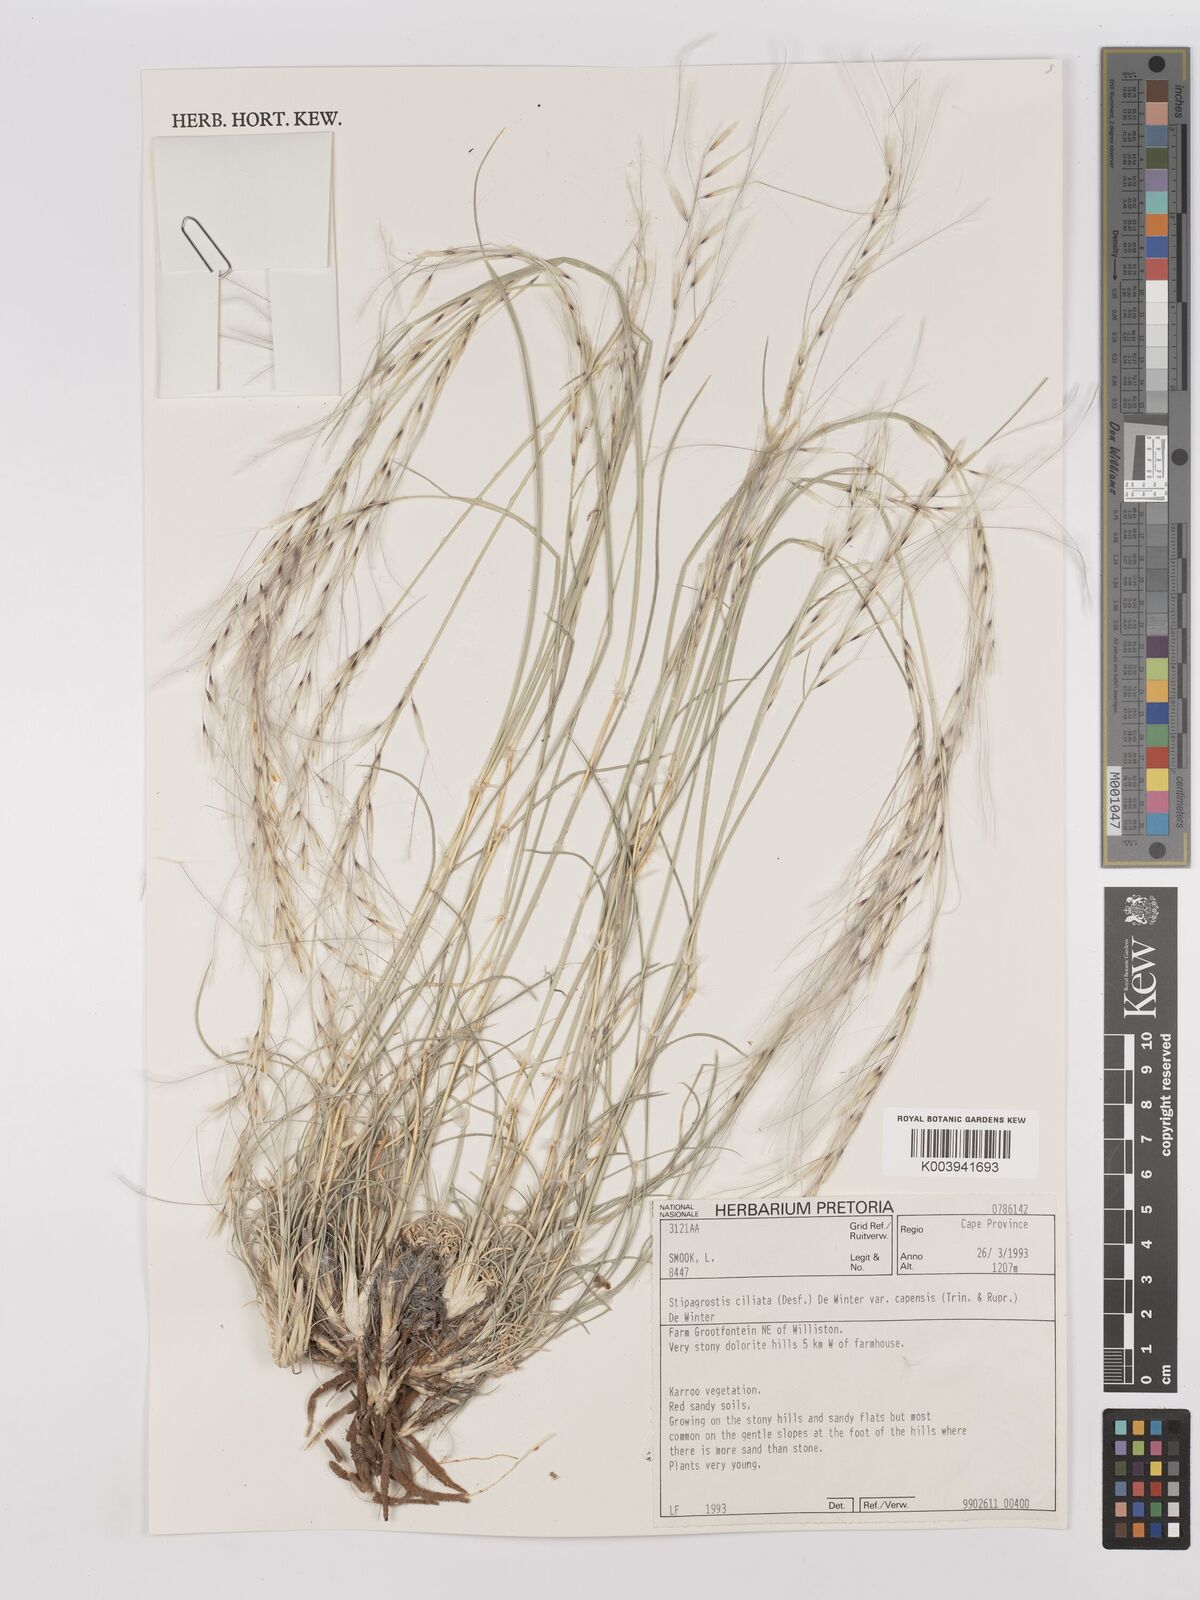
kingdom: Plantae
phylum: Tracheophyta
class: Liliopsida
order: Poales
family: Poaceae
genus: Stipagrostis
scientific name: Stipagrostis ciliata
